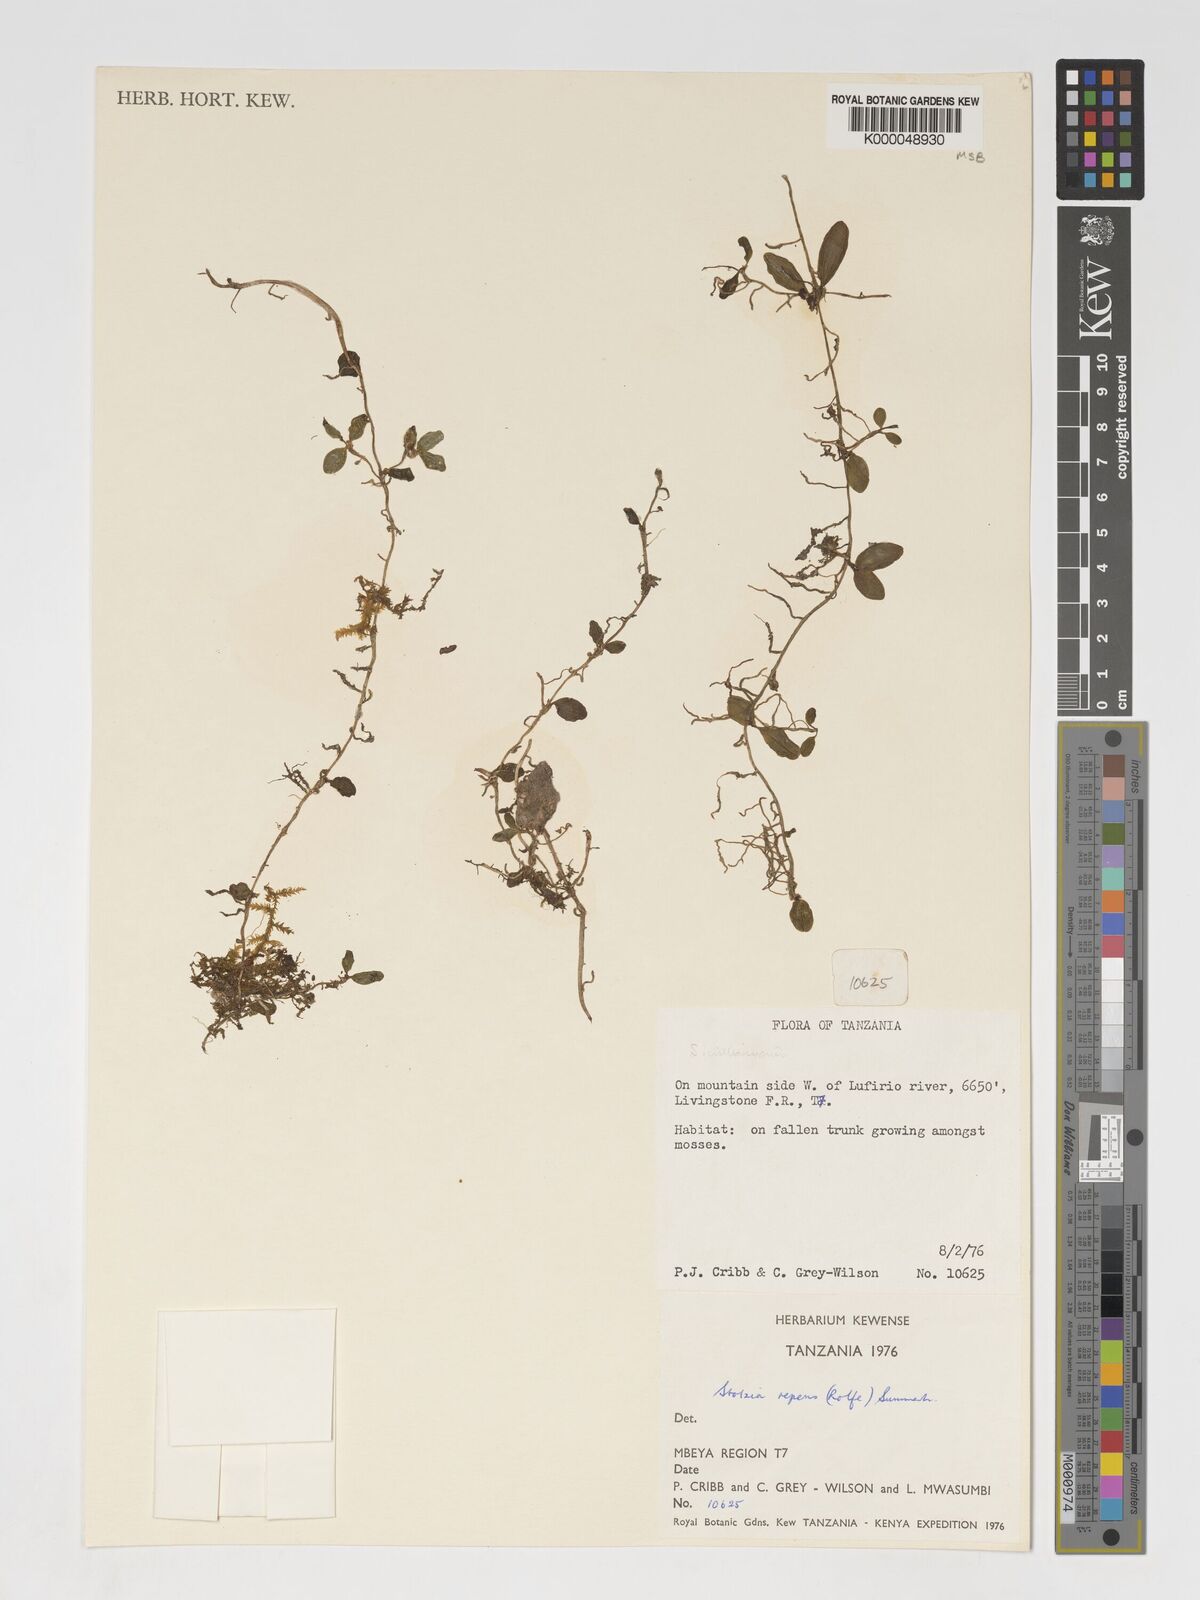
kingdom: Plantae
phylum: Tracheophyta
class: Liliopsida
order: Asparagales
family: Orchidaceae
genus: Porpax
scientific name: Porpax williamsonii
